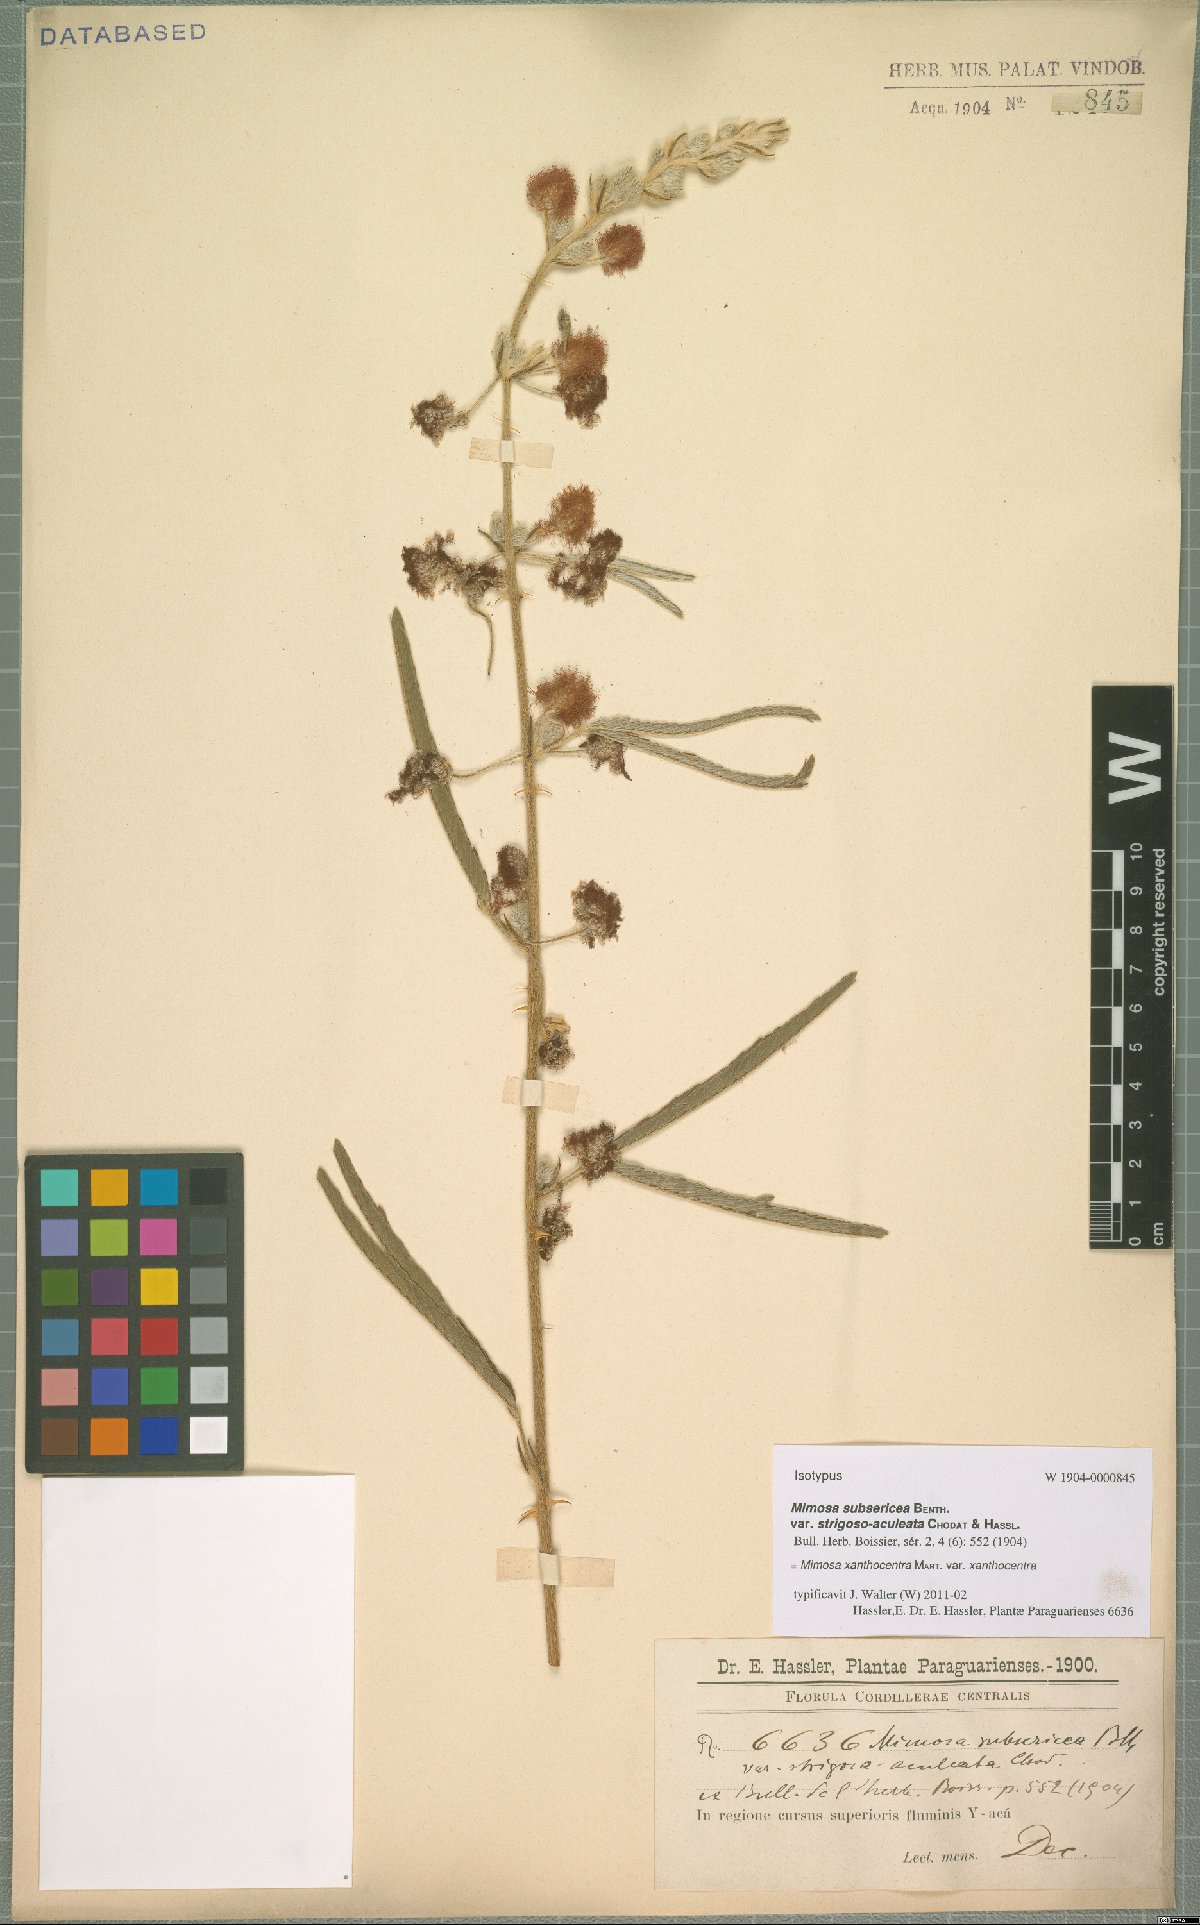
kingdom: Plantae
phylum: Tracheophyta
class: Magnoliopsida
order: Fabales
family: Fabaceae
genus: Mimosa
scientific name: Mimosa xanthocentra
